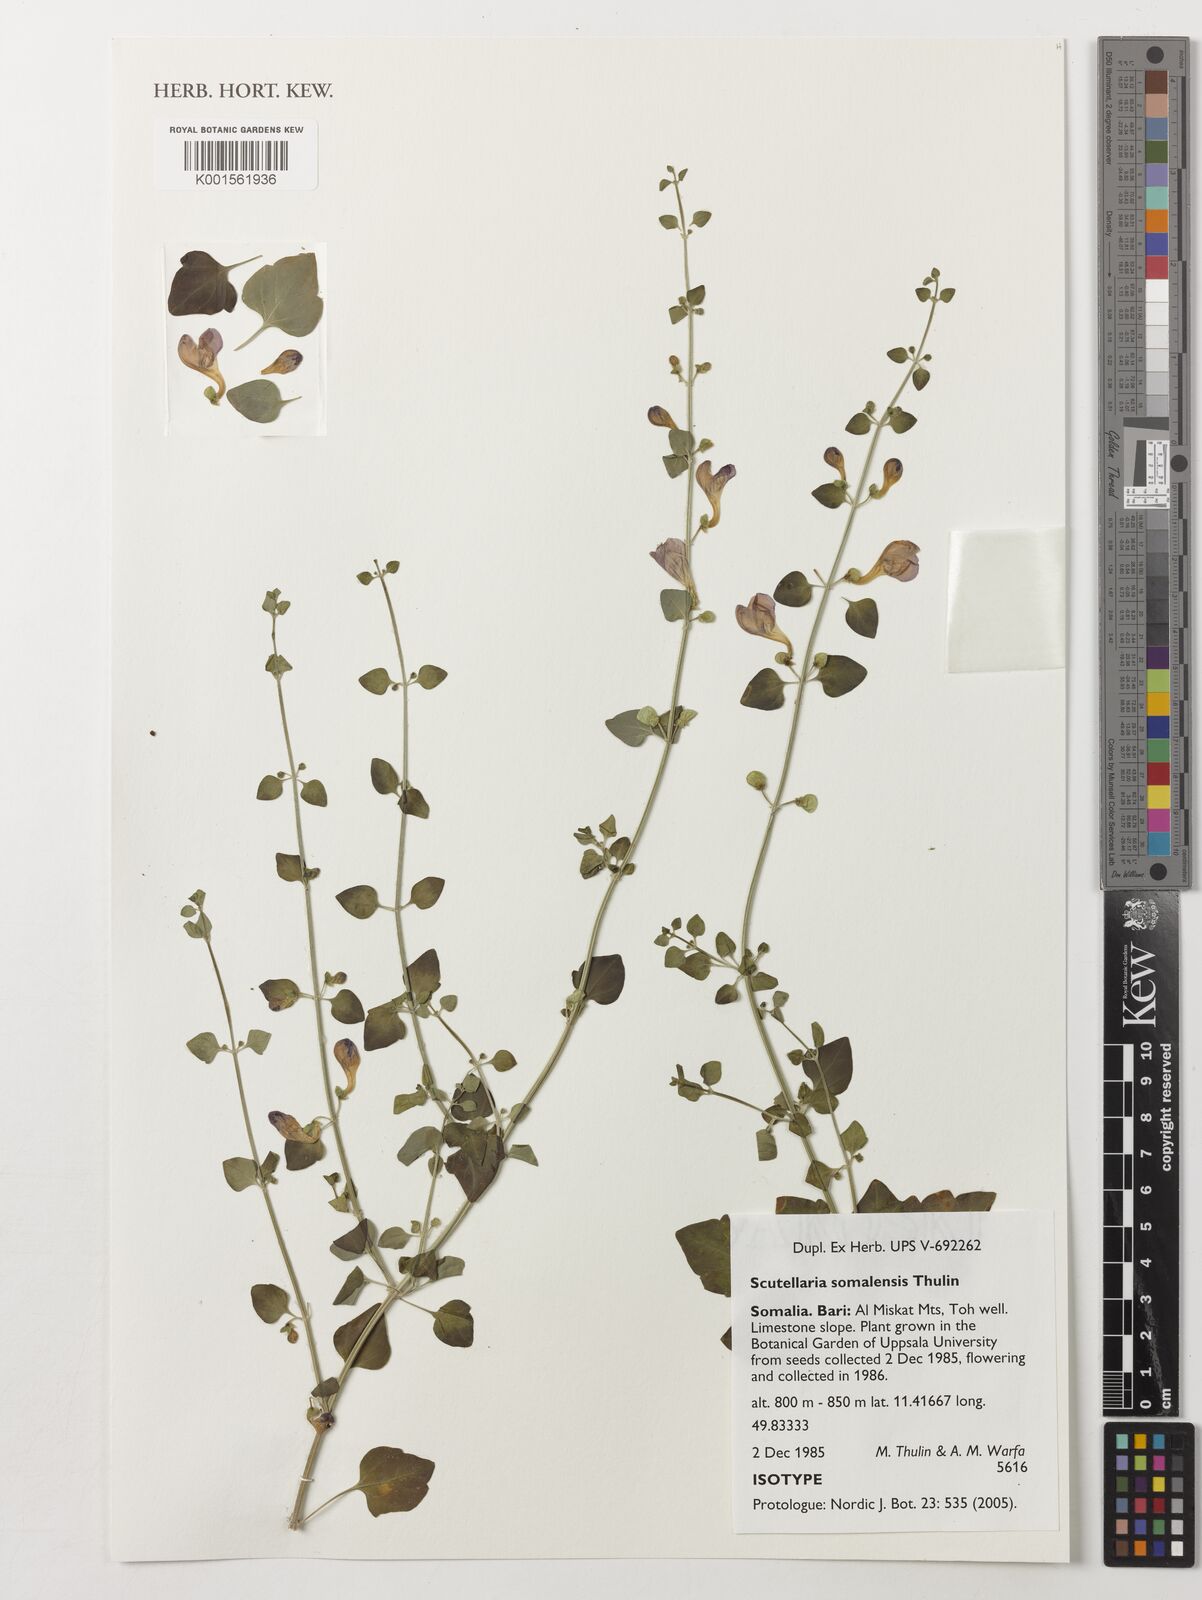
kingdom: Plantae
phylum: Tracheophyta
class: Magnoliopsida
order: Lamiales
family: Lamiaceae
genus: Scutellaria
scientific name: Scutellaria somalensis
